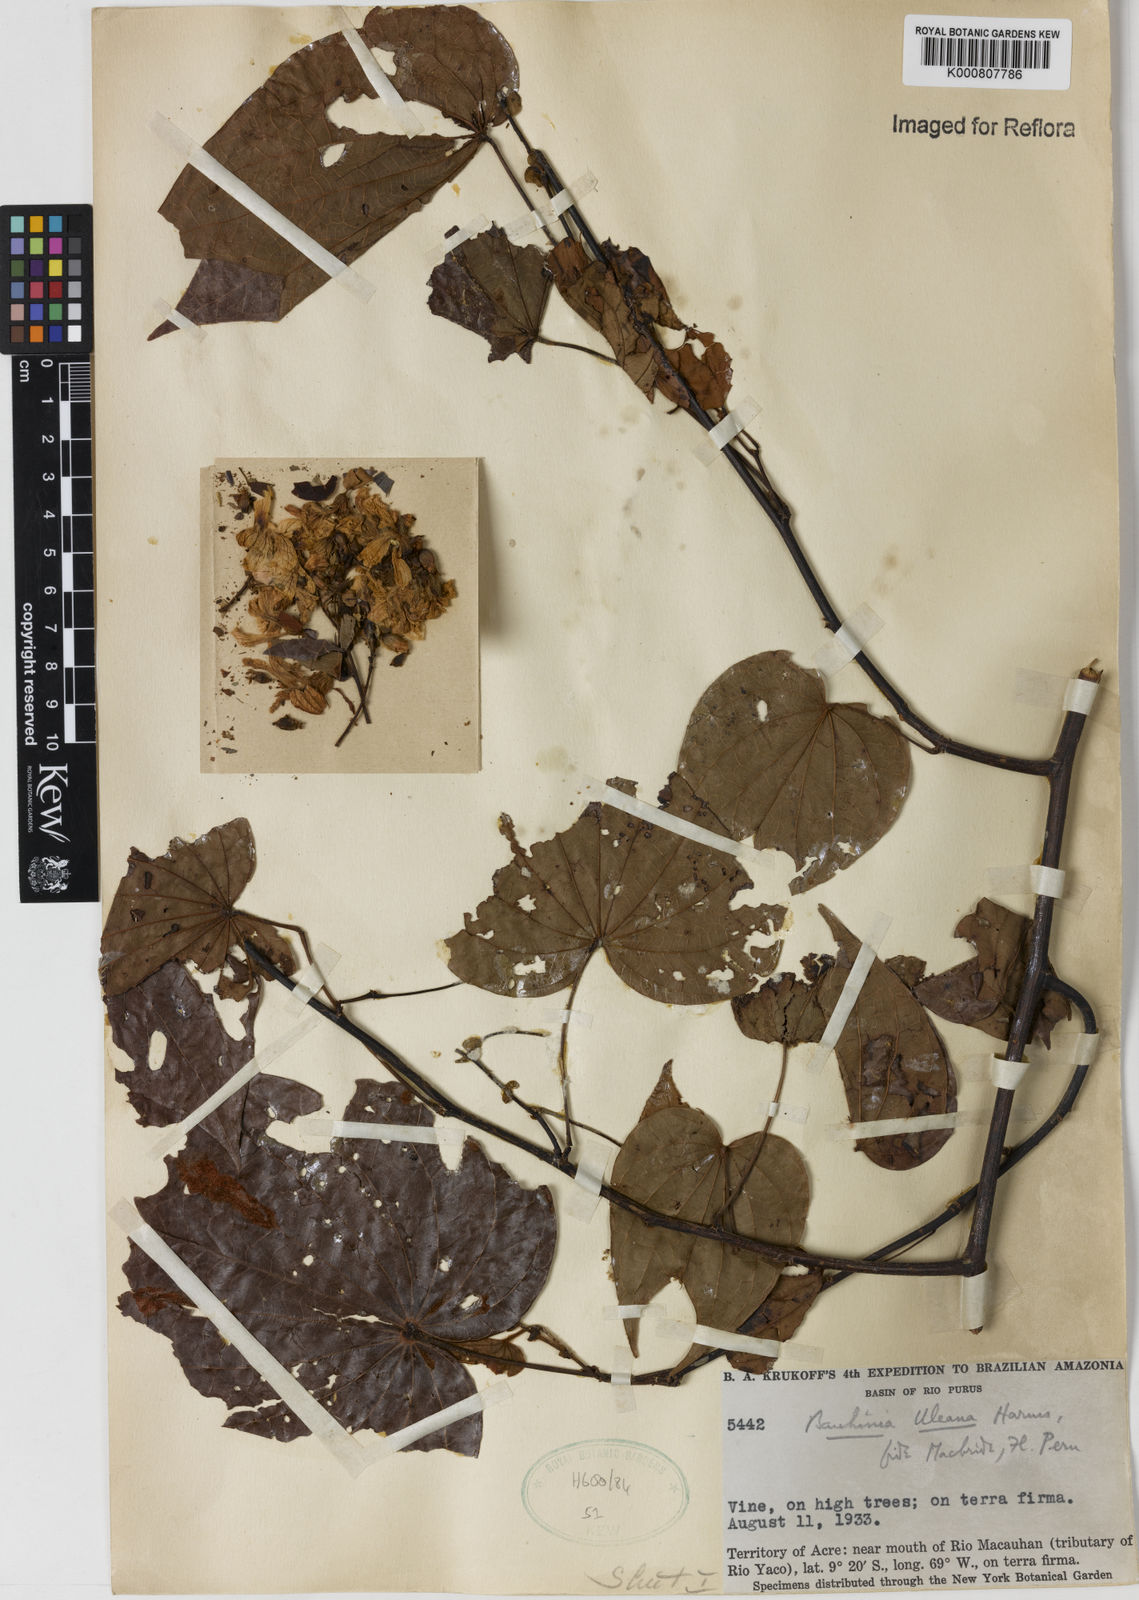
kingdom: Plantae
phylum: Tracheophyta
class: Magnoliopsida
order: Fabales
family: Fabaceae
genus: Schnella
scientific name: Schnella uleana
